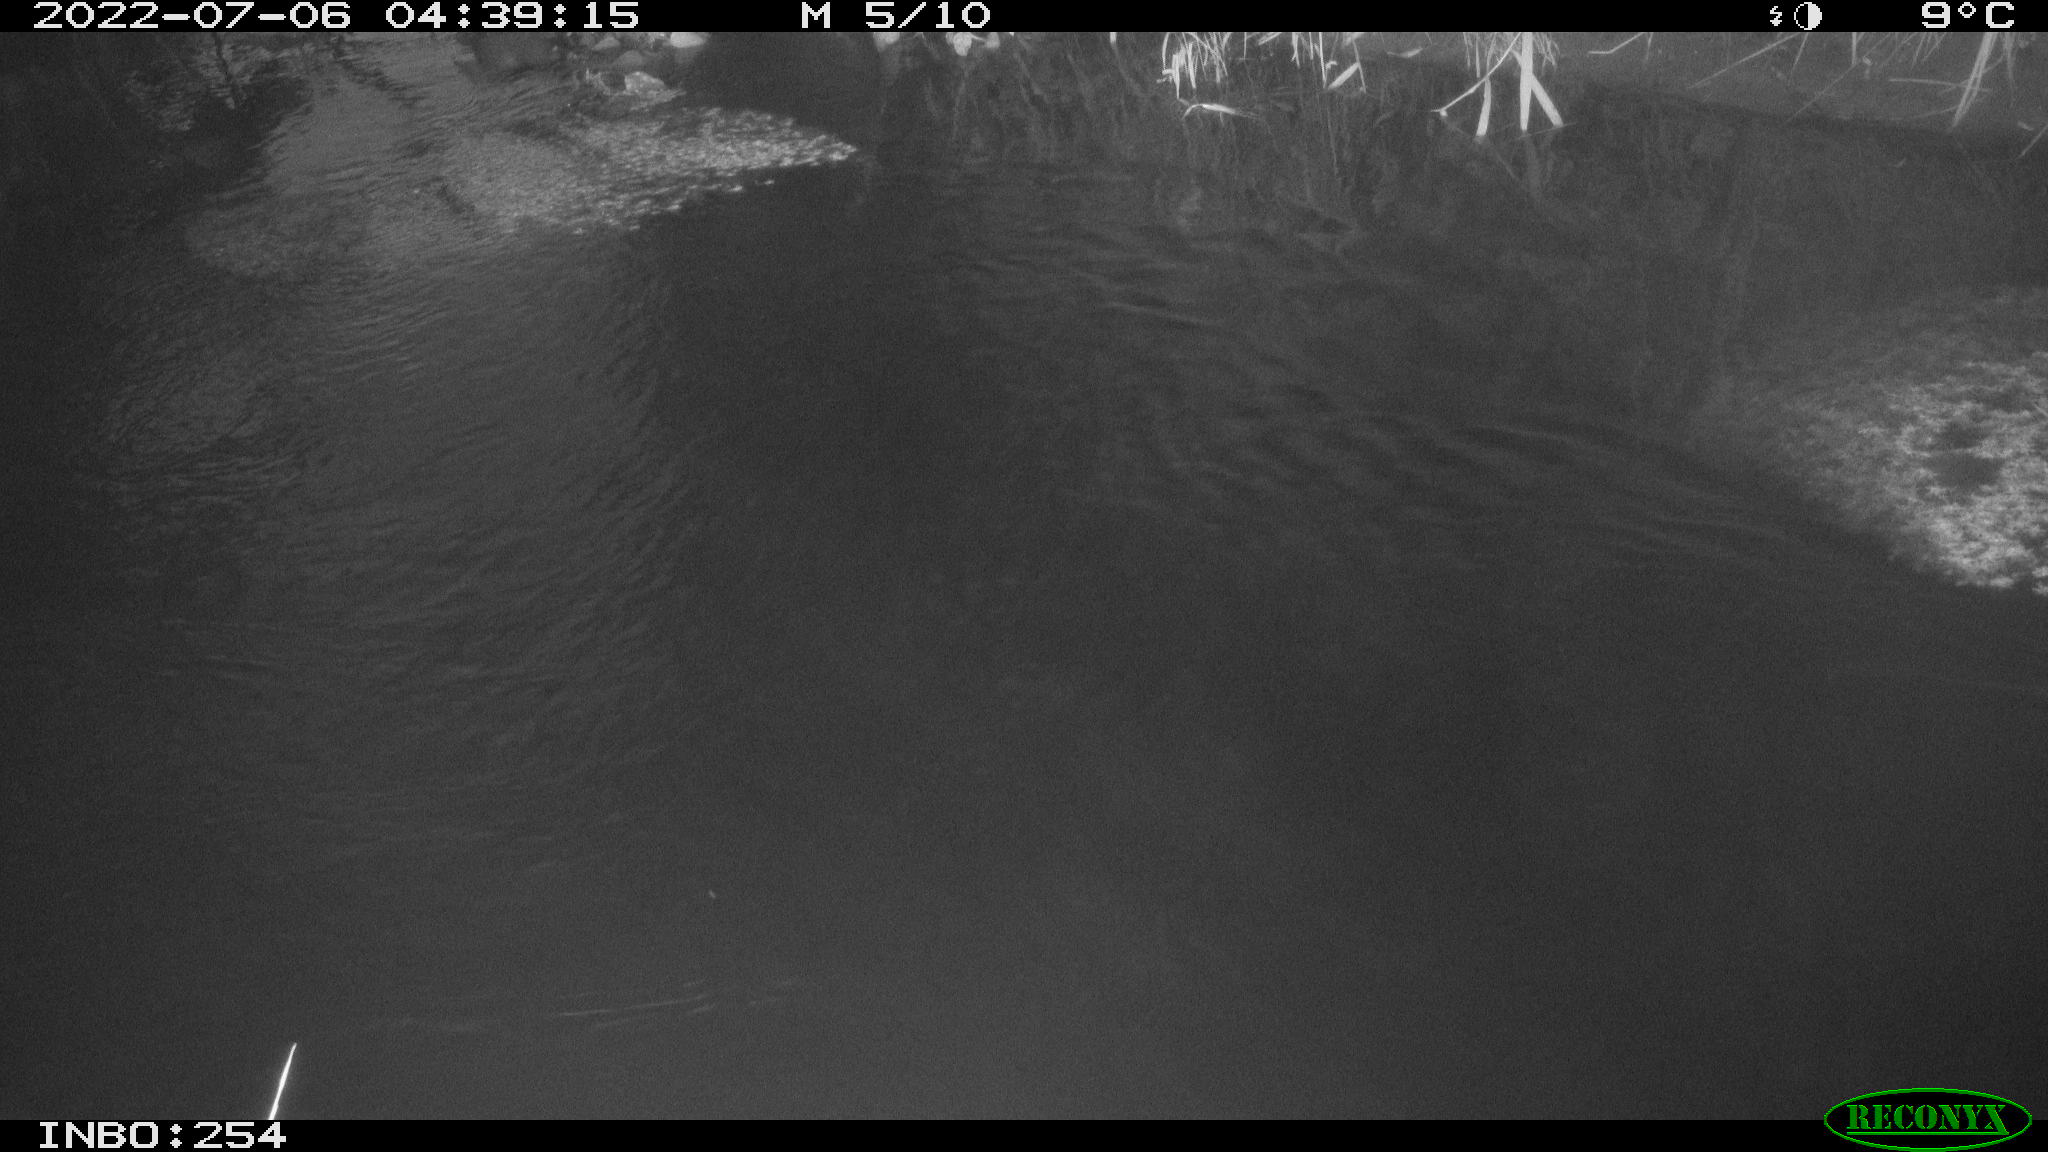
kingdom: Animalia
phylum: Chordata
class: Aves
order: Anseriformes
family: Anatidae
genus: Anas
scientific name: Anas platyrhynchos
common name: Mallard
